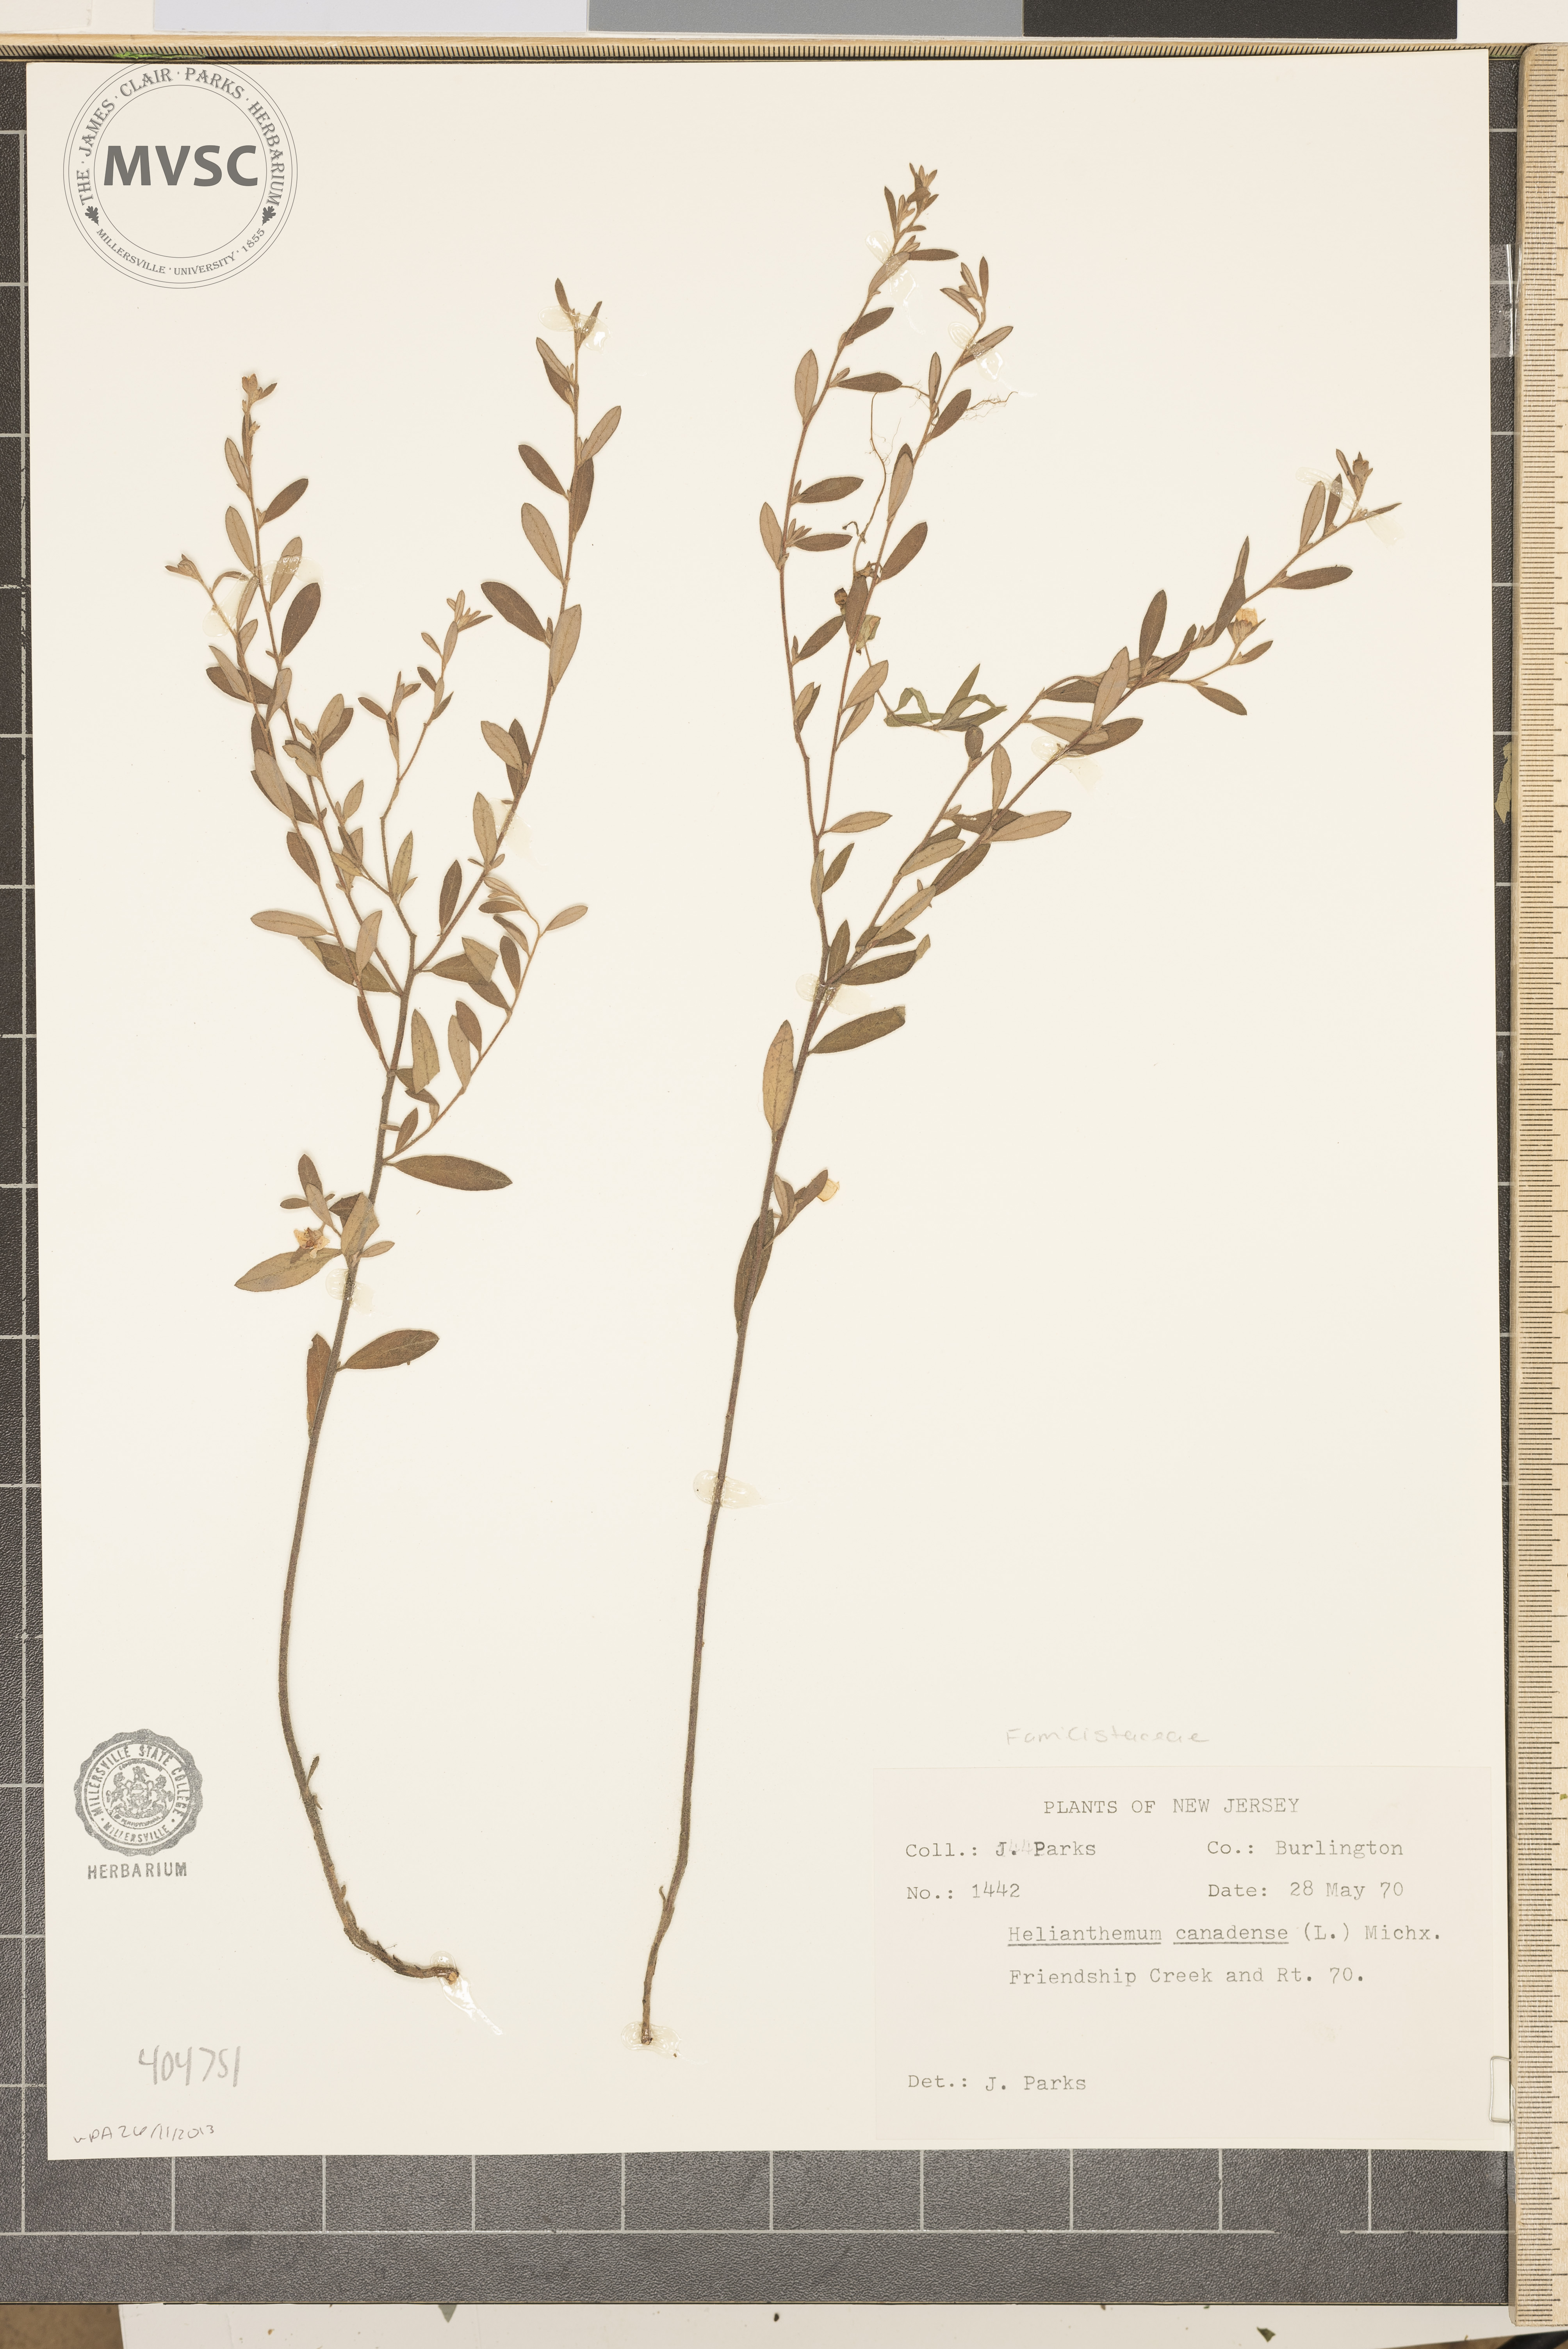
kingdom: Plantae
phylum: Tracheophyta
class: Magnoliopsida
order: Malvales
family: Cistaceae
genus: Crocanthemum
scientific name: Crocanthemum canadense
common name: Canada frostweed
